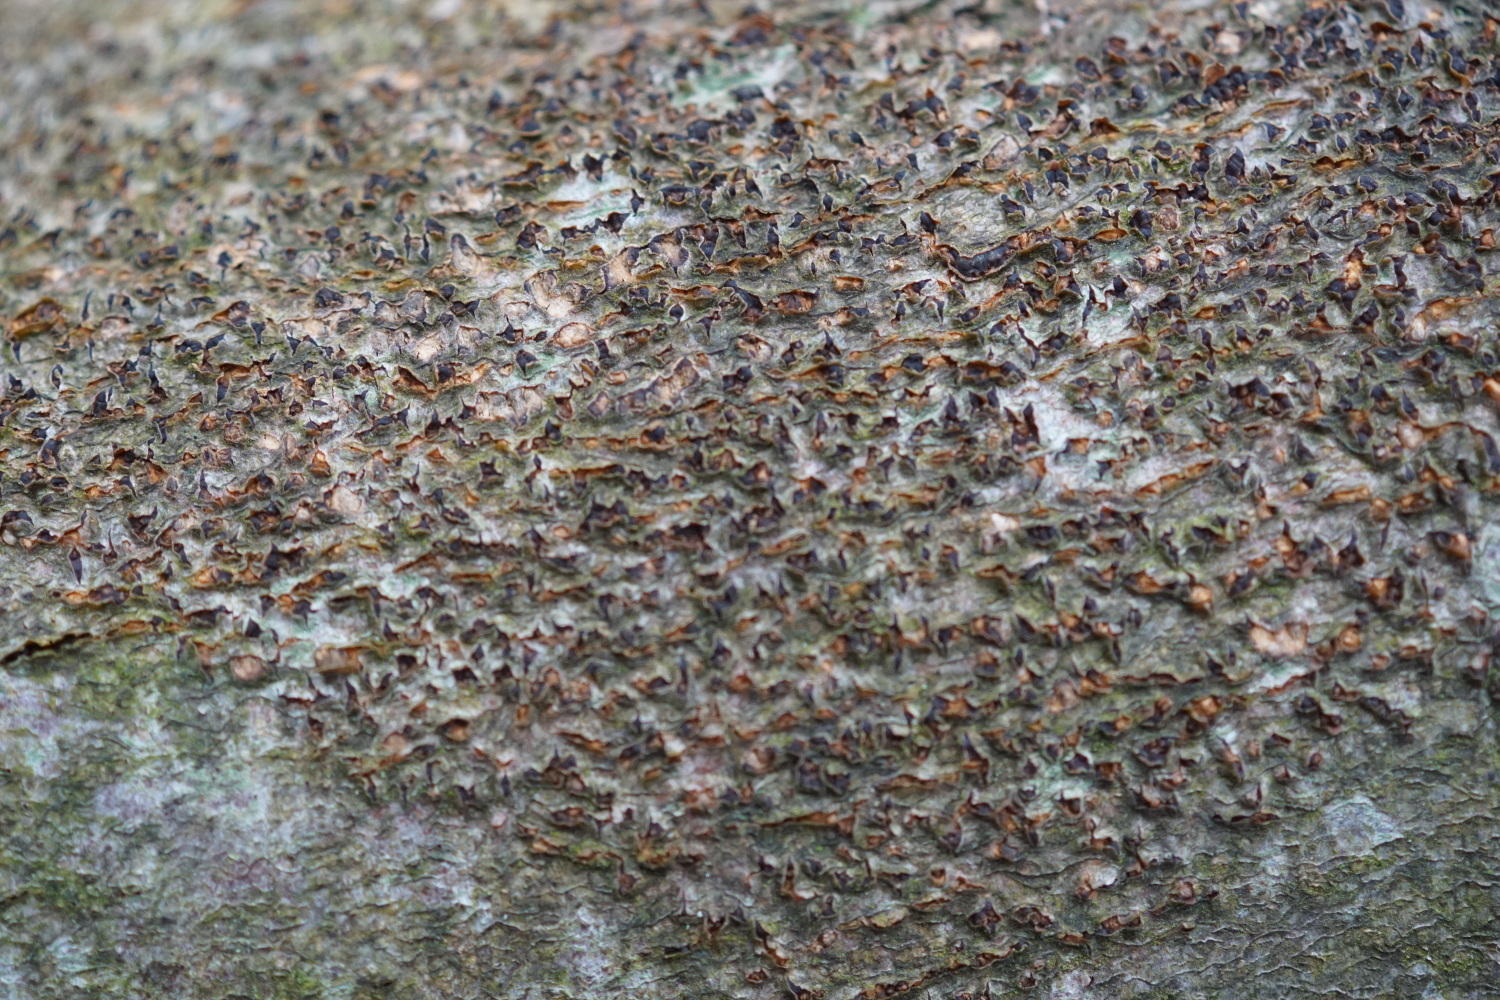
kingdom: Fungi
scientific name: Fungi
